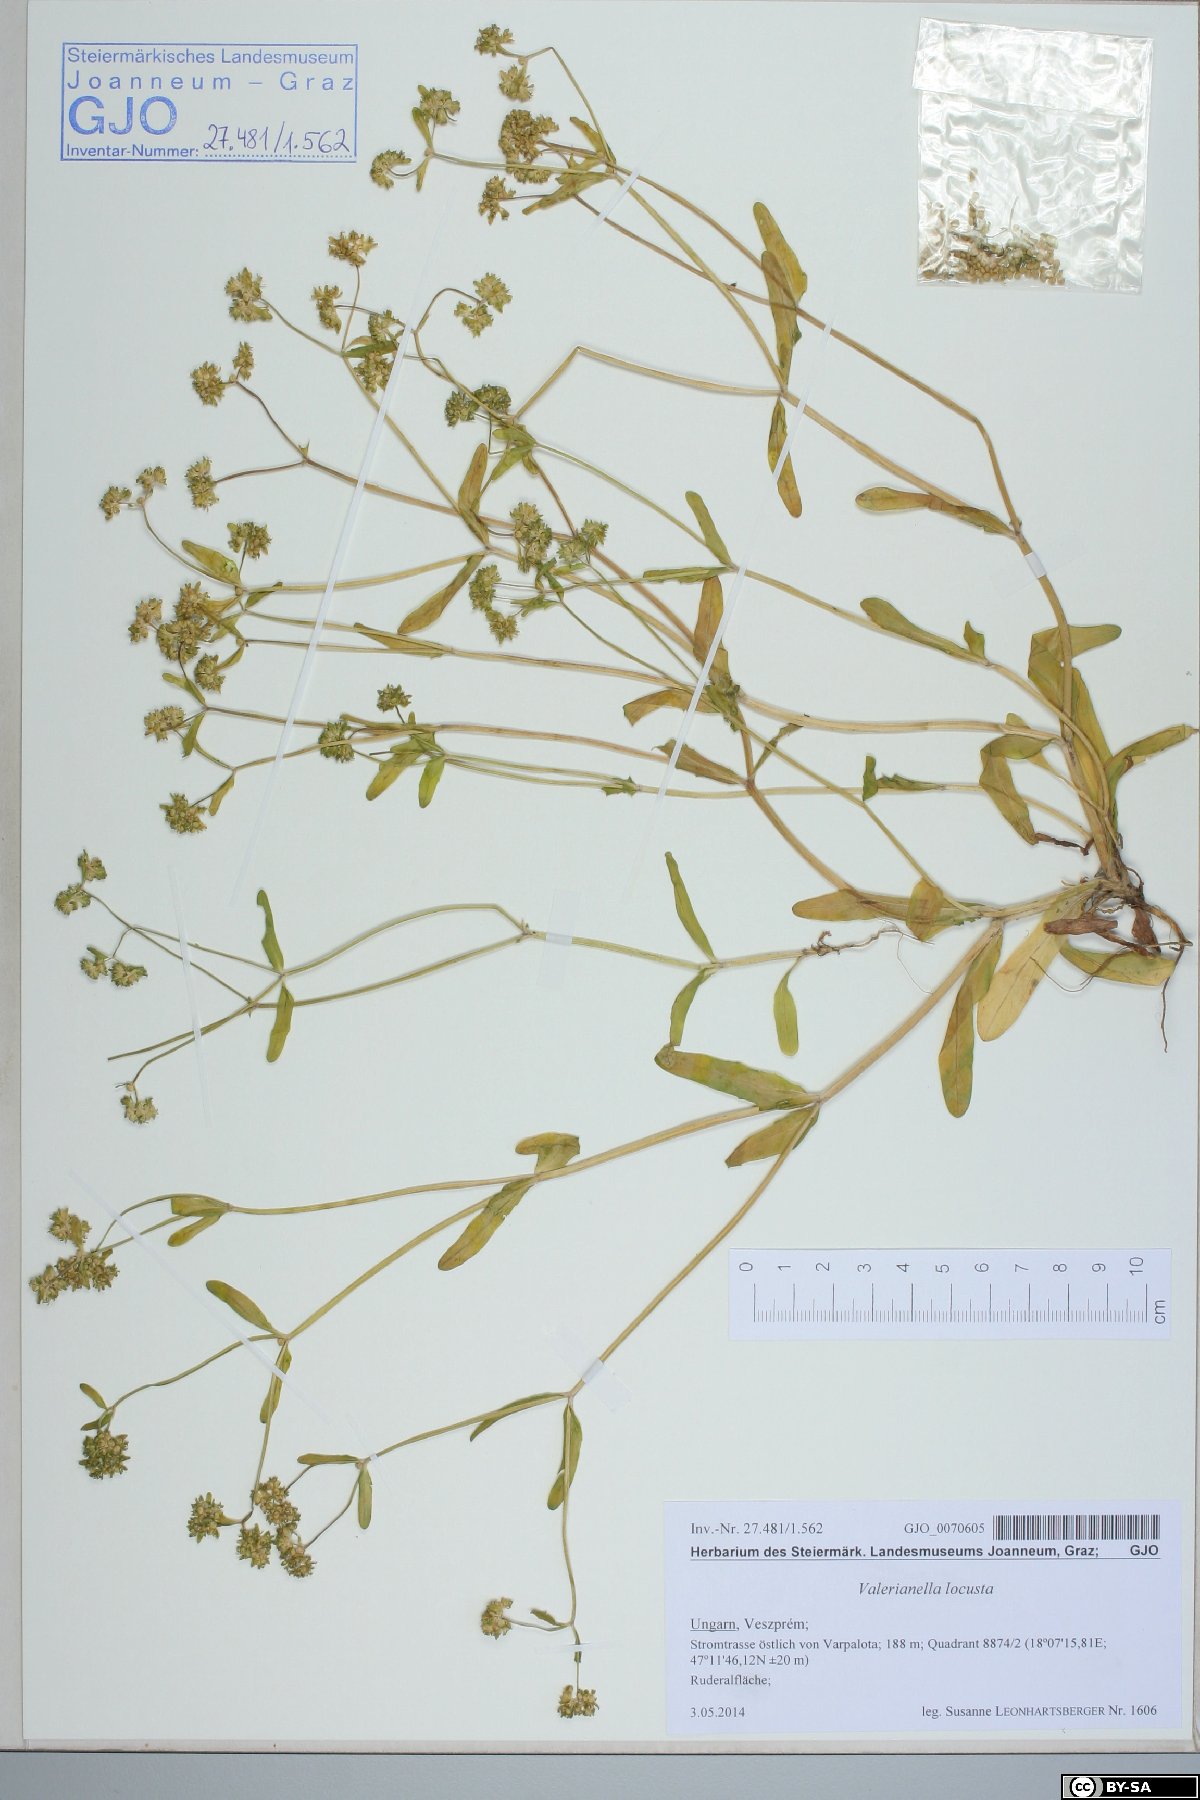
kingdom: Plantae
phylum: Tracheophyta
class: Magnoliopsida
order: Dipsacales
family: Caprifoliaceae
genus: Valerianella
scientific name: Valerianella locusta
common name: Common cornsalad
